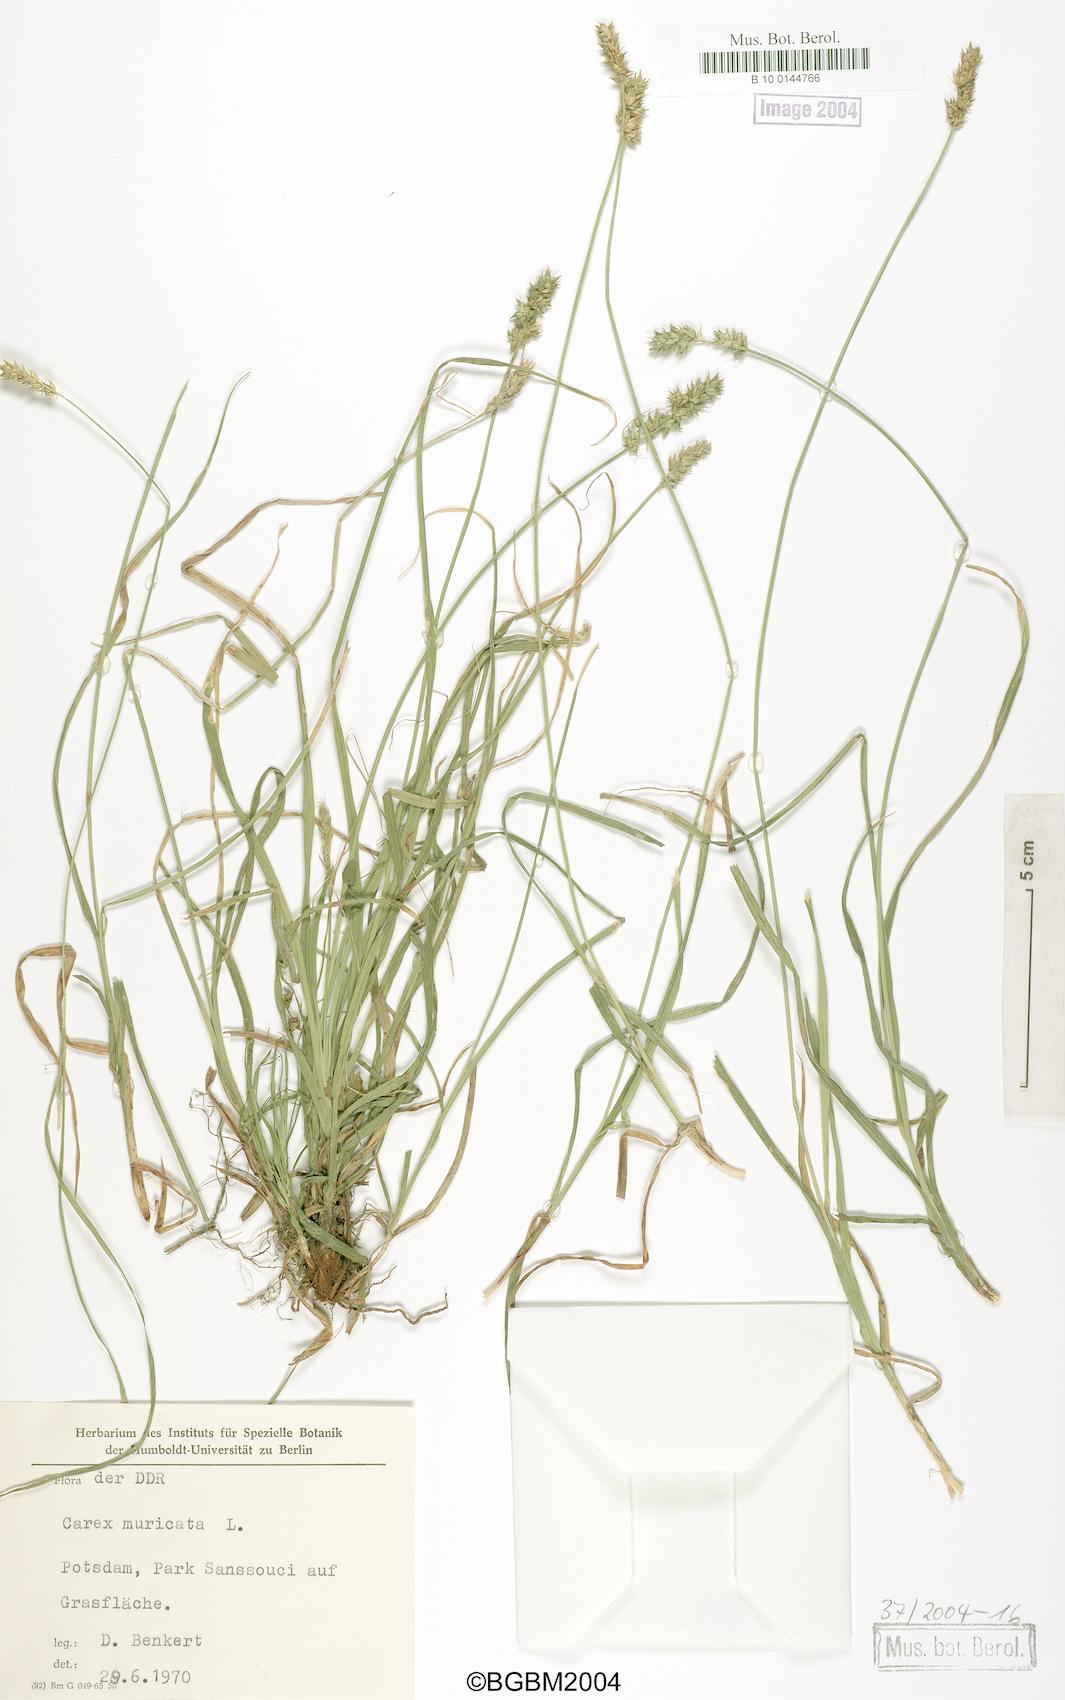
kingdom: Plantae
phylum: Tracheophyta
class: Liliopsida
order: Poales
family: Cyperaceae
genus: Carex
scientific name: Carex muricata
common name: Rough sedge
